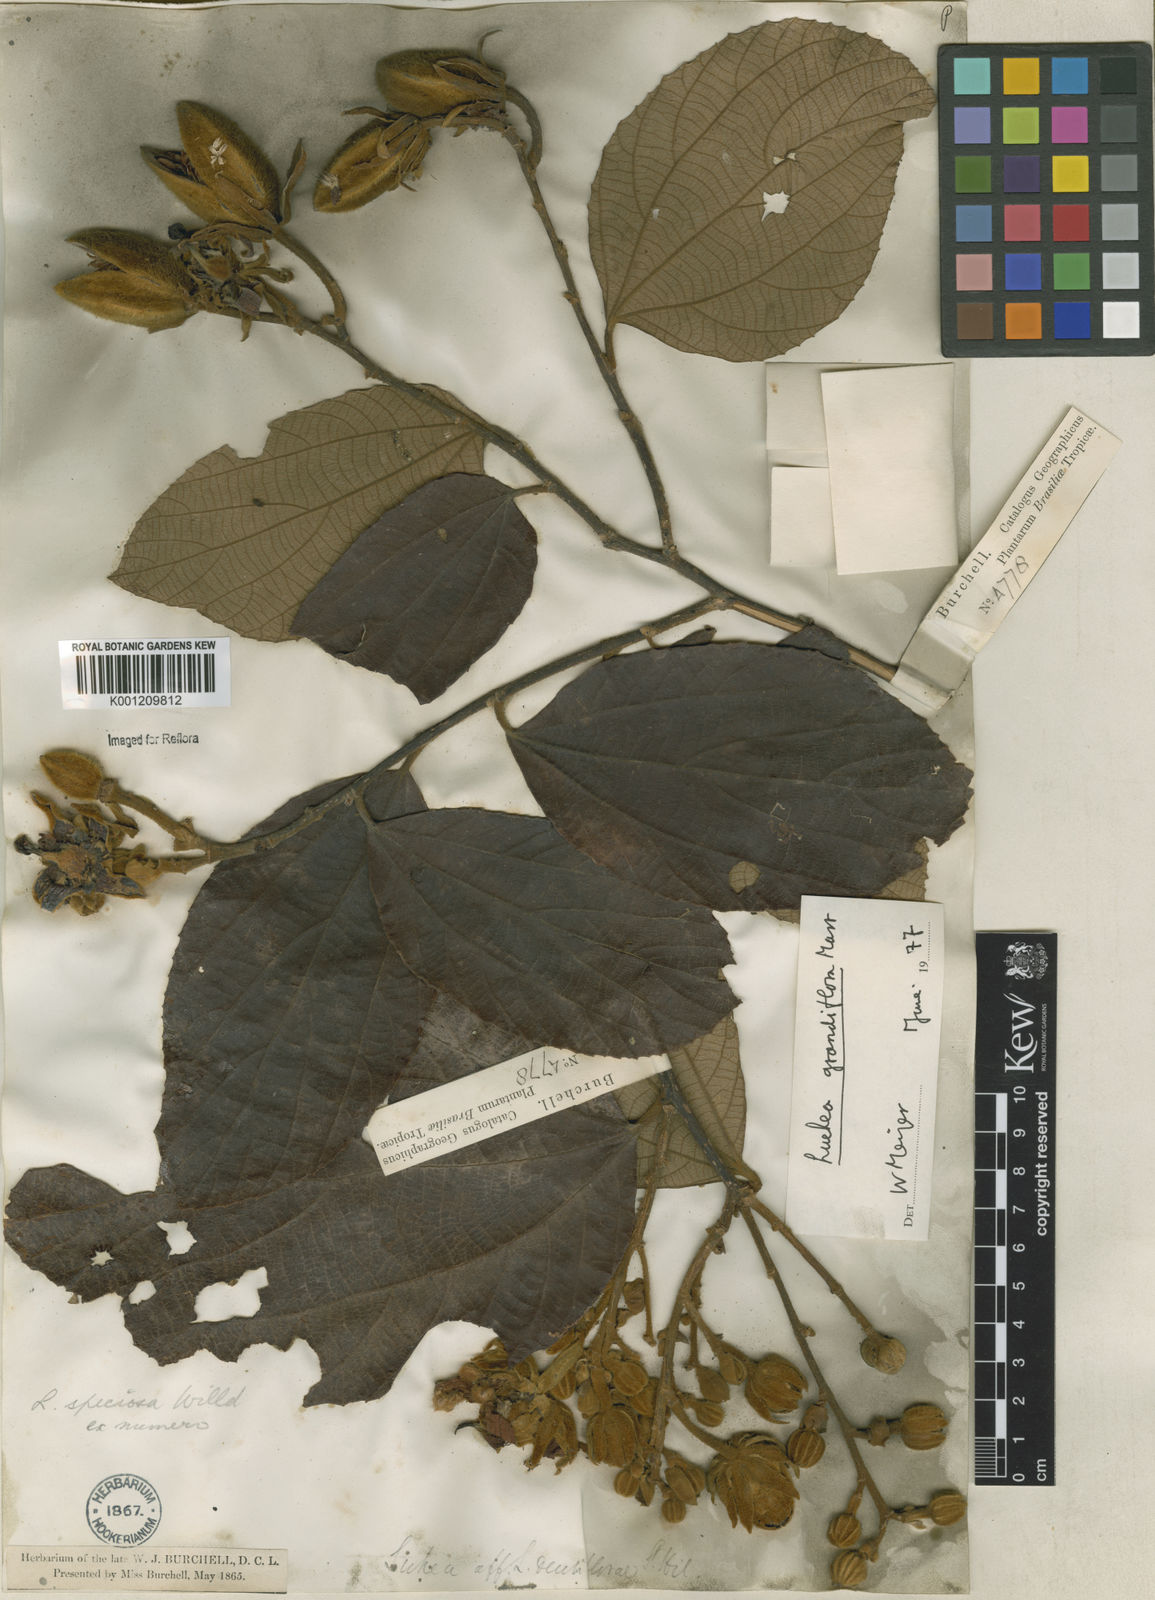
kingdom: Plantae
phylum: Tracheophyta
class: Magnoliopsida
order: Malvales
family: Malvaceae
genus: Luehea
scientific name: Luehea grandiflora
